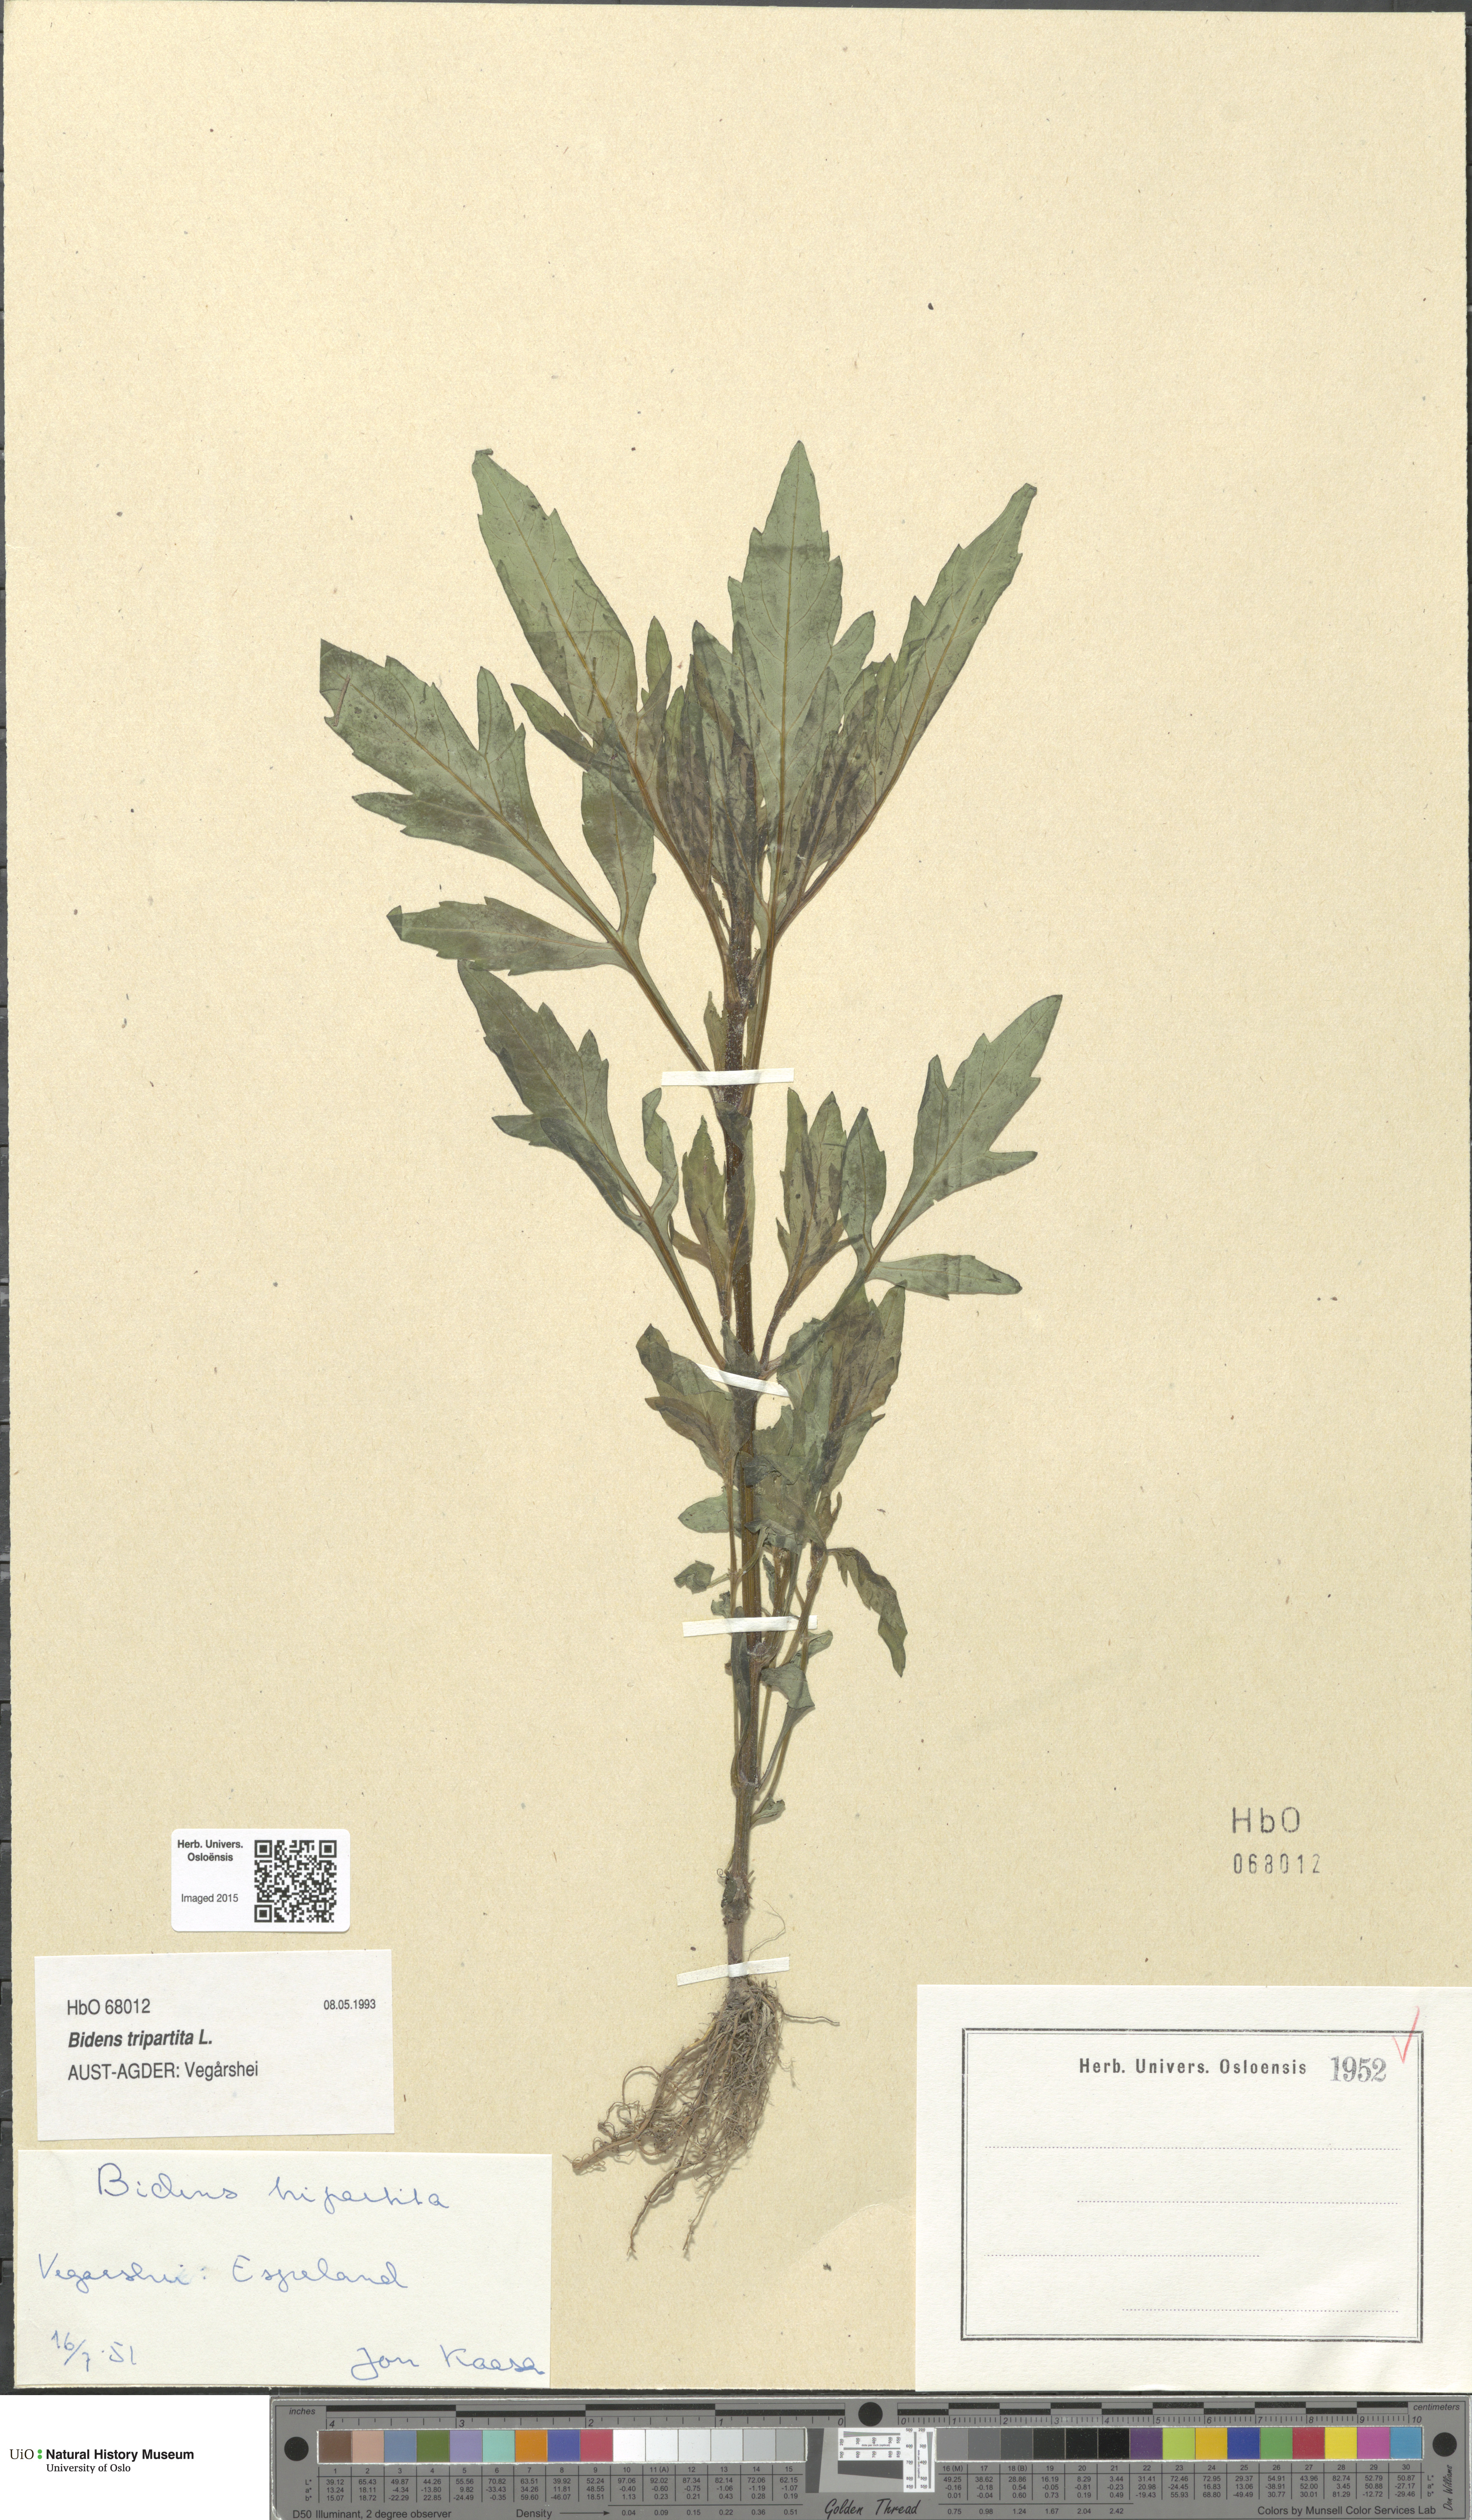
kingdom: Plantae
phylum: Tracheophyta
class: Magnoliopsida
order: Asterales
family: Asteraceae
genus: Bidens
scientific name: Bidens tripartita
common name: Trifid bur-marigold
